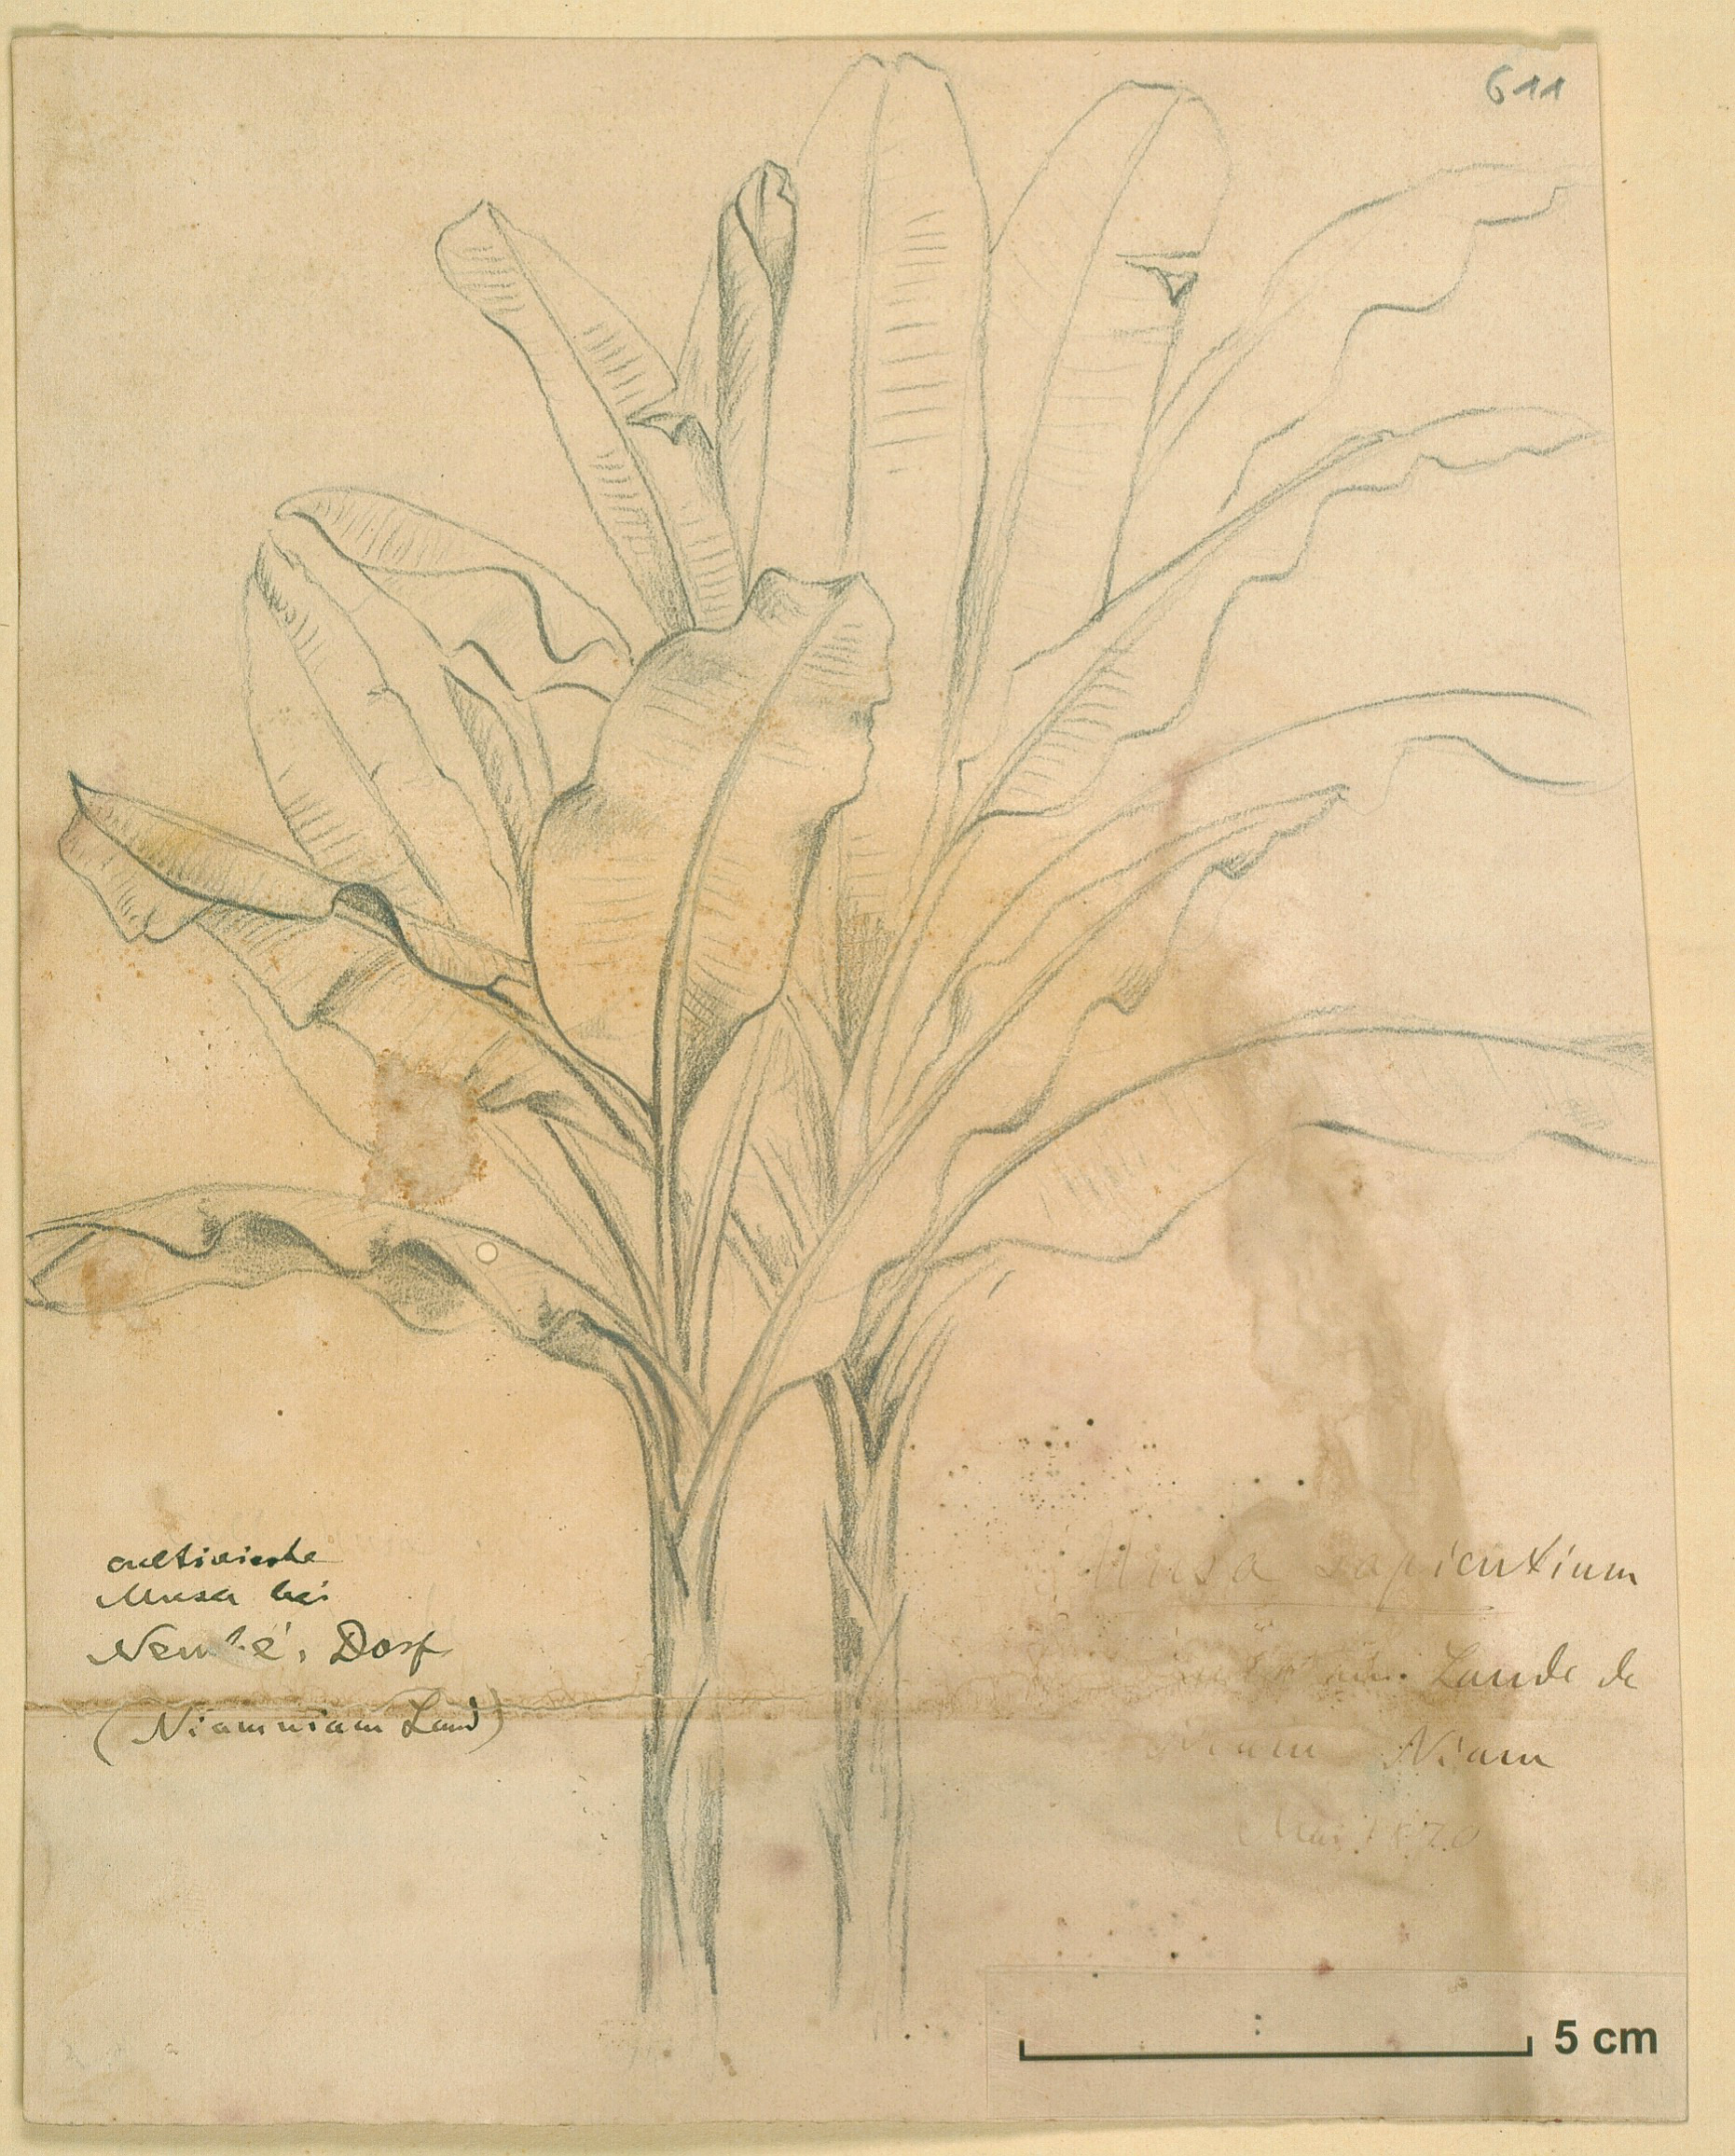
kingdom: Plantae
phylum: Tracheophyta
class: Liliopsida
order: Zingiberales
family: Musaceae
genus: Musa
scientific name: Musa paradisiaca
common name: French plantain
